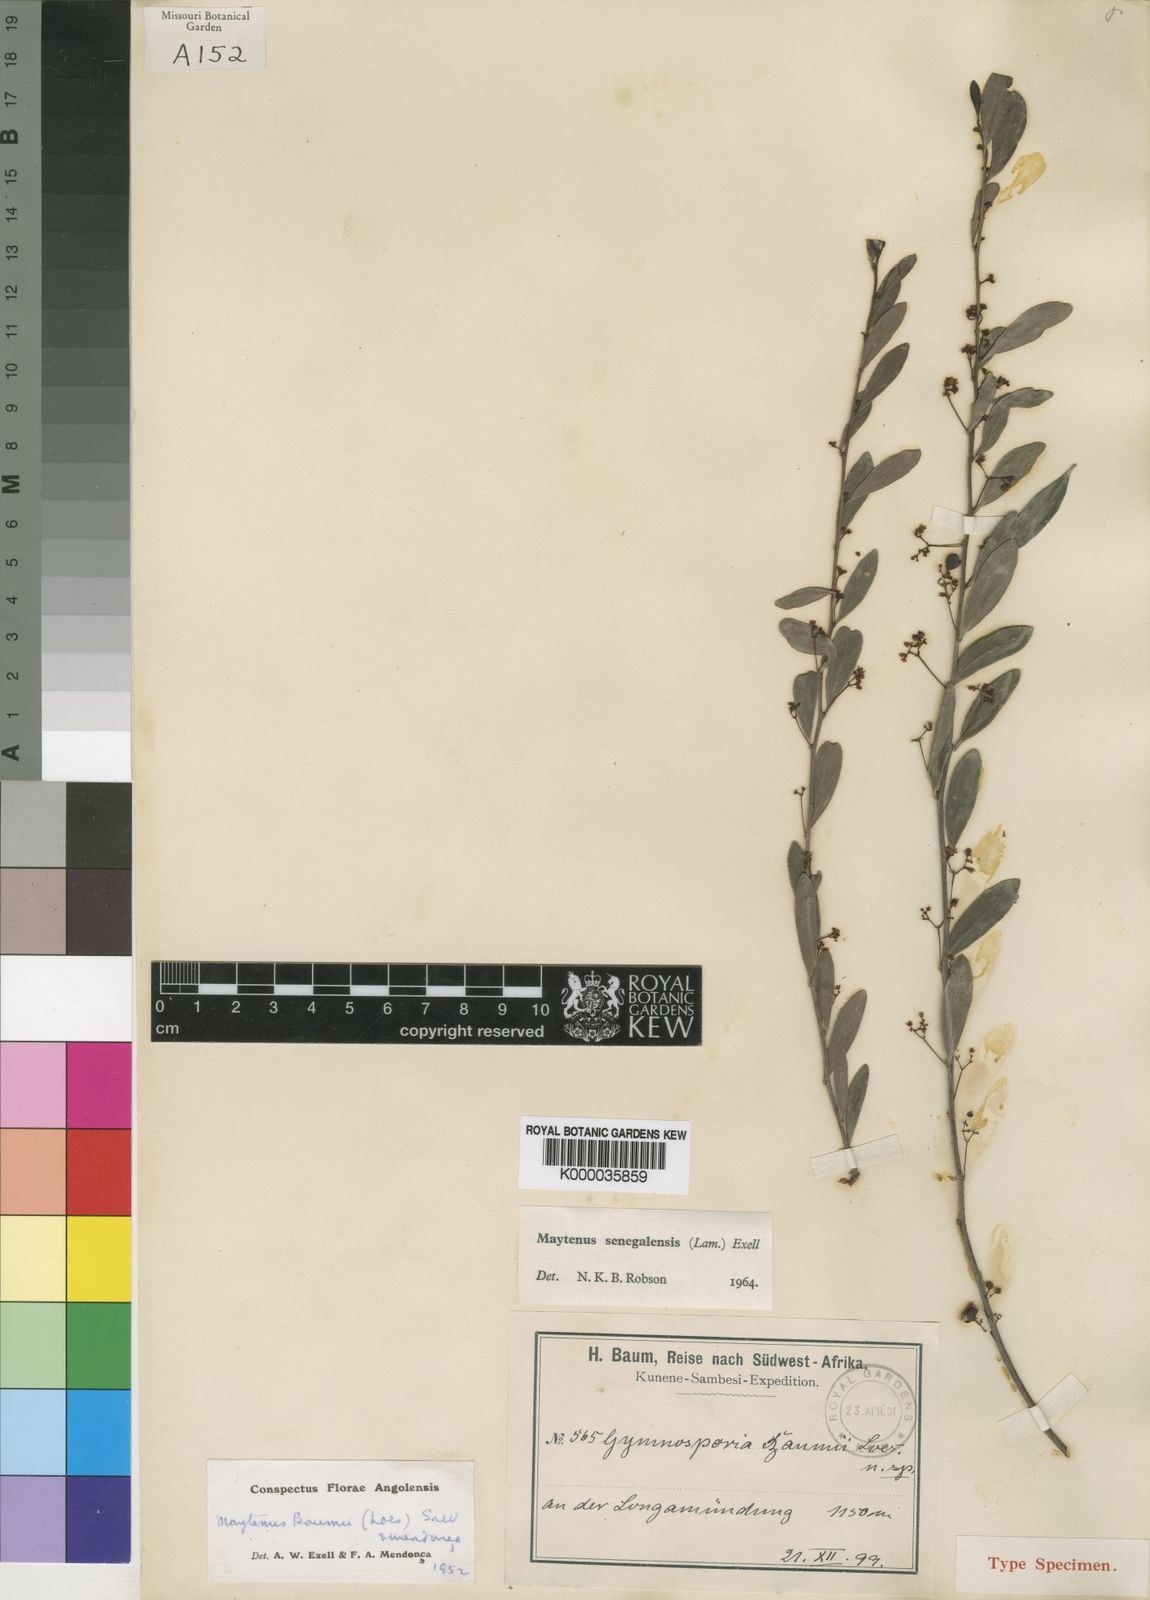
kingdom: Plantae
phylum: Tracheophyta
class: Magnoliopsida
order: Celastrales
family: Celastraceae
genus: Gymnosporia
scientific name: Gymnosporia senegalensis
